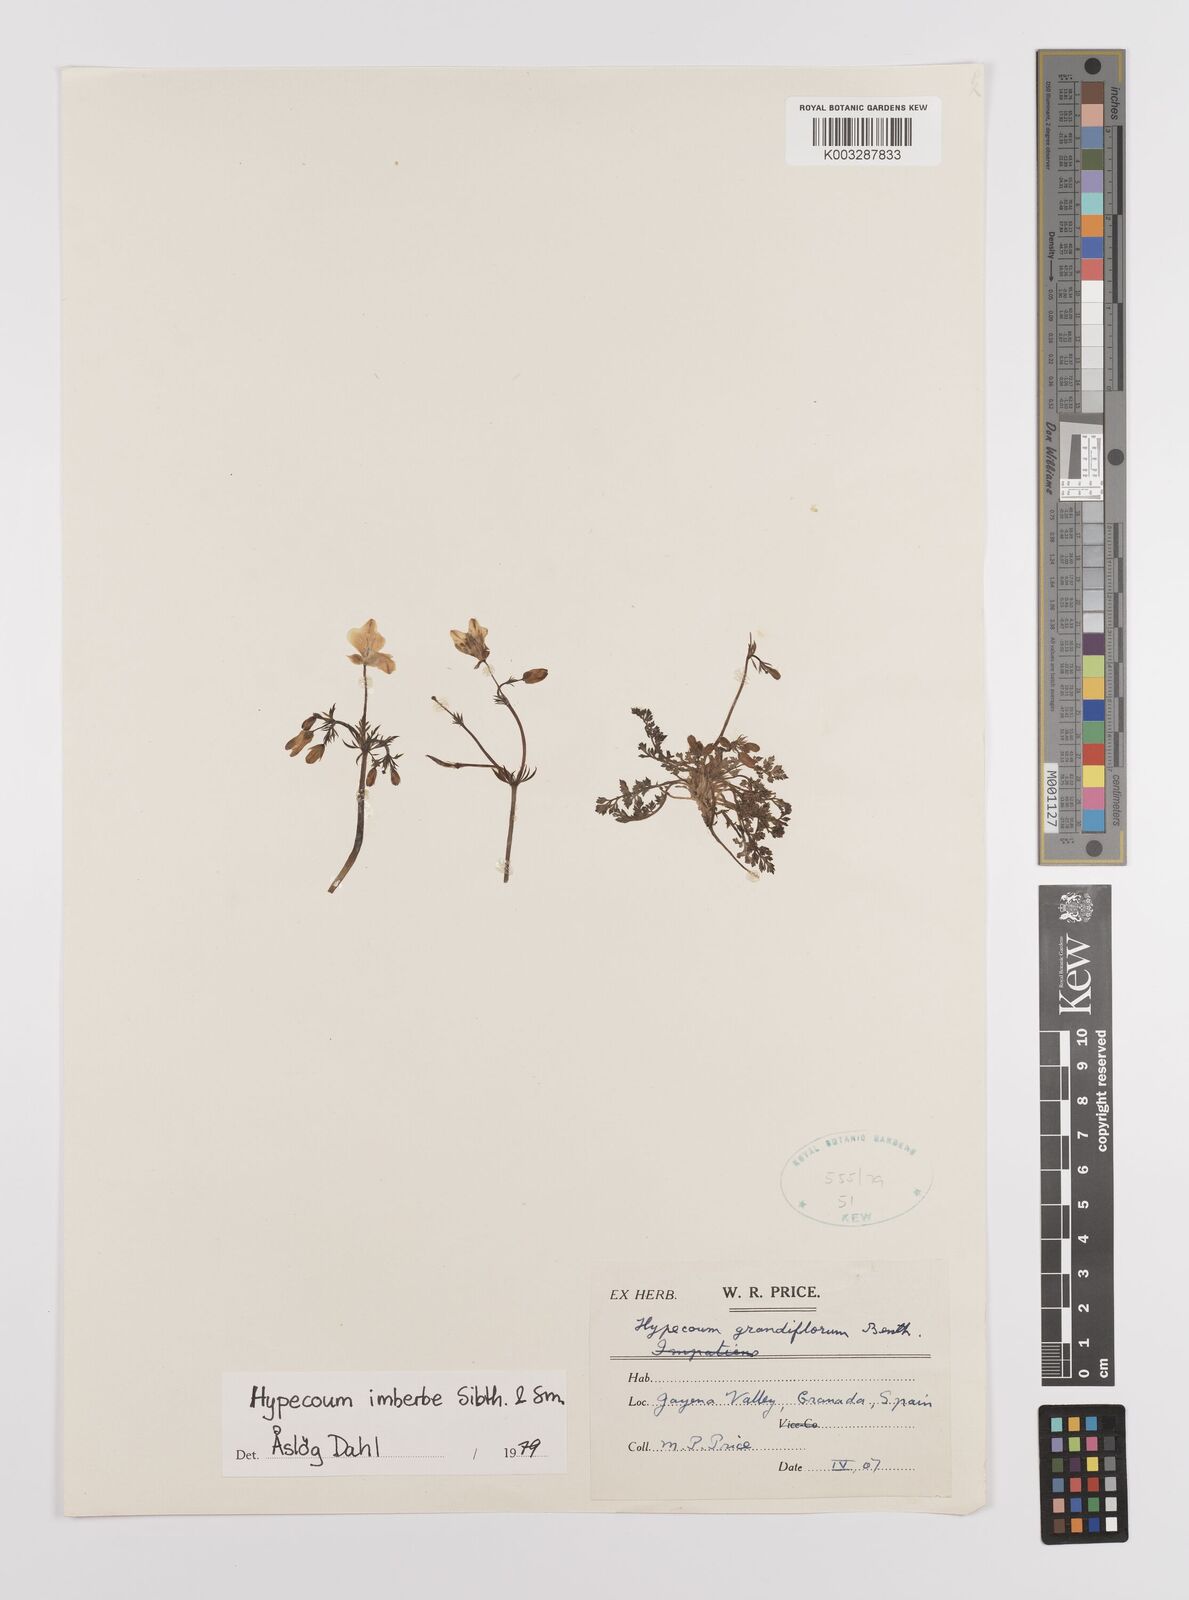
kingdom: Plantae
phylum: Tracheophyta
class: Magnoliopsida
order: Ranunculales
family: Papaveraceae
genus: Hypecoum
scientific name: Hypecoum imberbe
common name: Sicklefruit hypecoum
